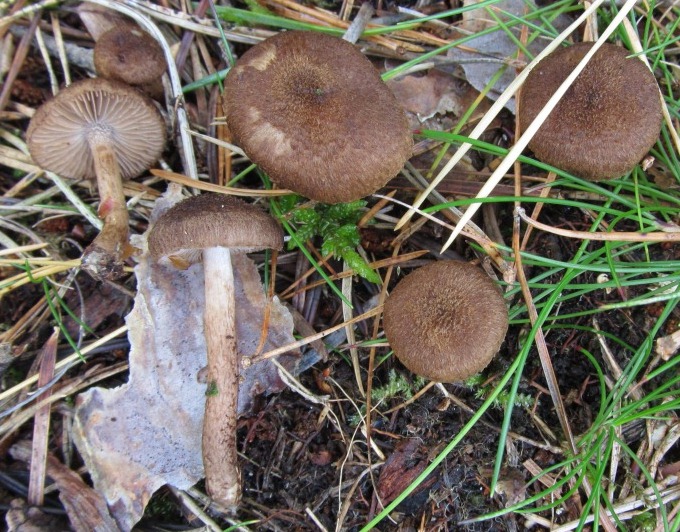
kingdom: Fungi
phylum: Basidiomycota
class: Agaricomycetes
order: Agaricales
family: Inocybaceae
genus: Inocybe
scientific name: Inocybe lanuginosa
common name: uldskællet trævlhat
